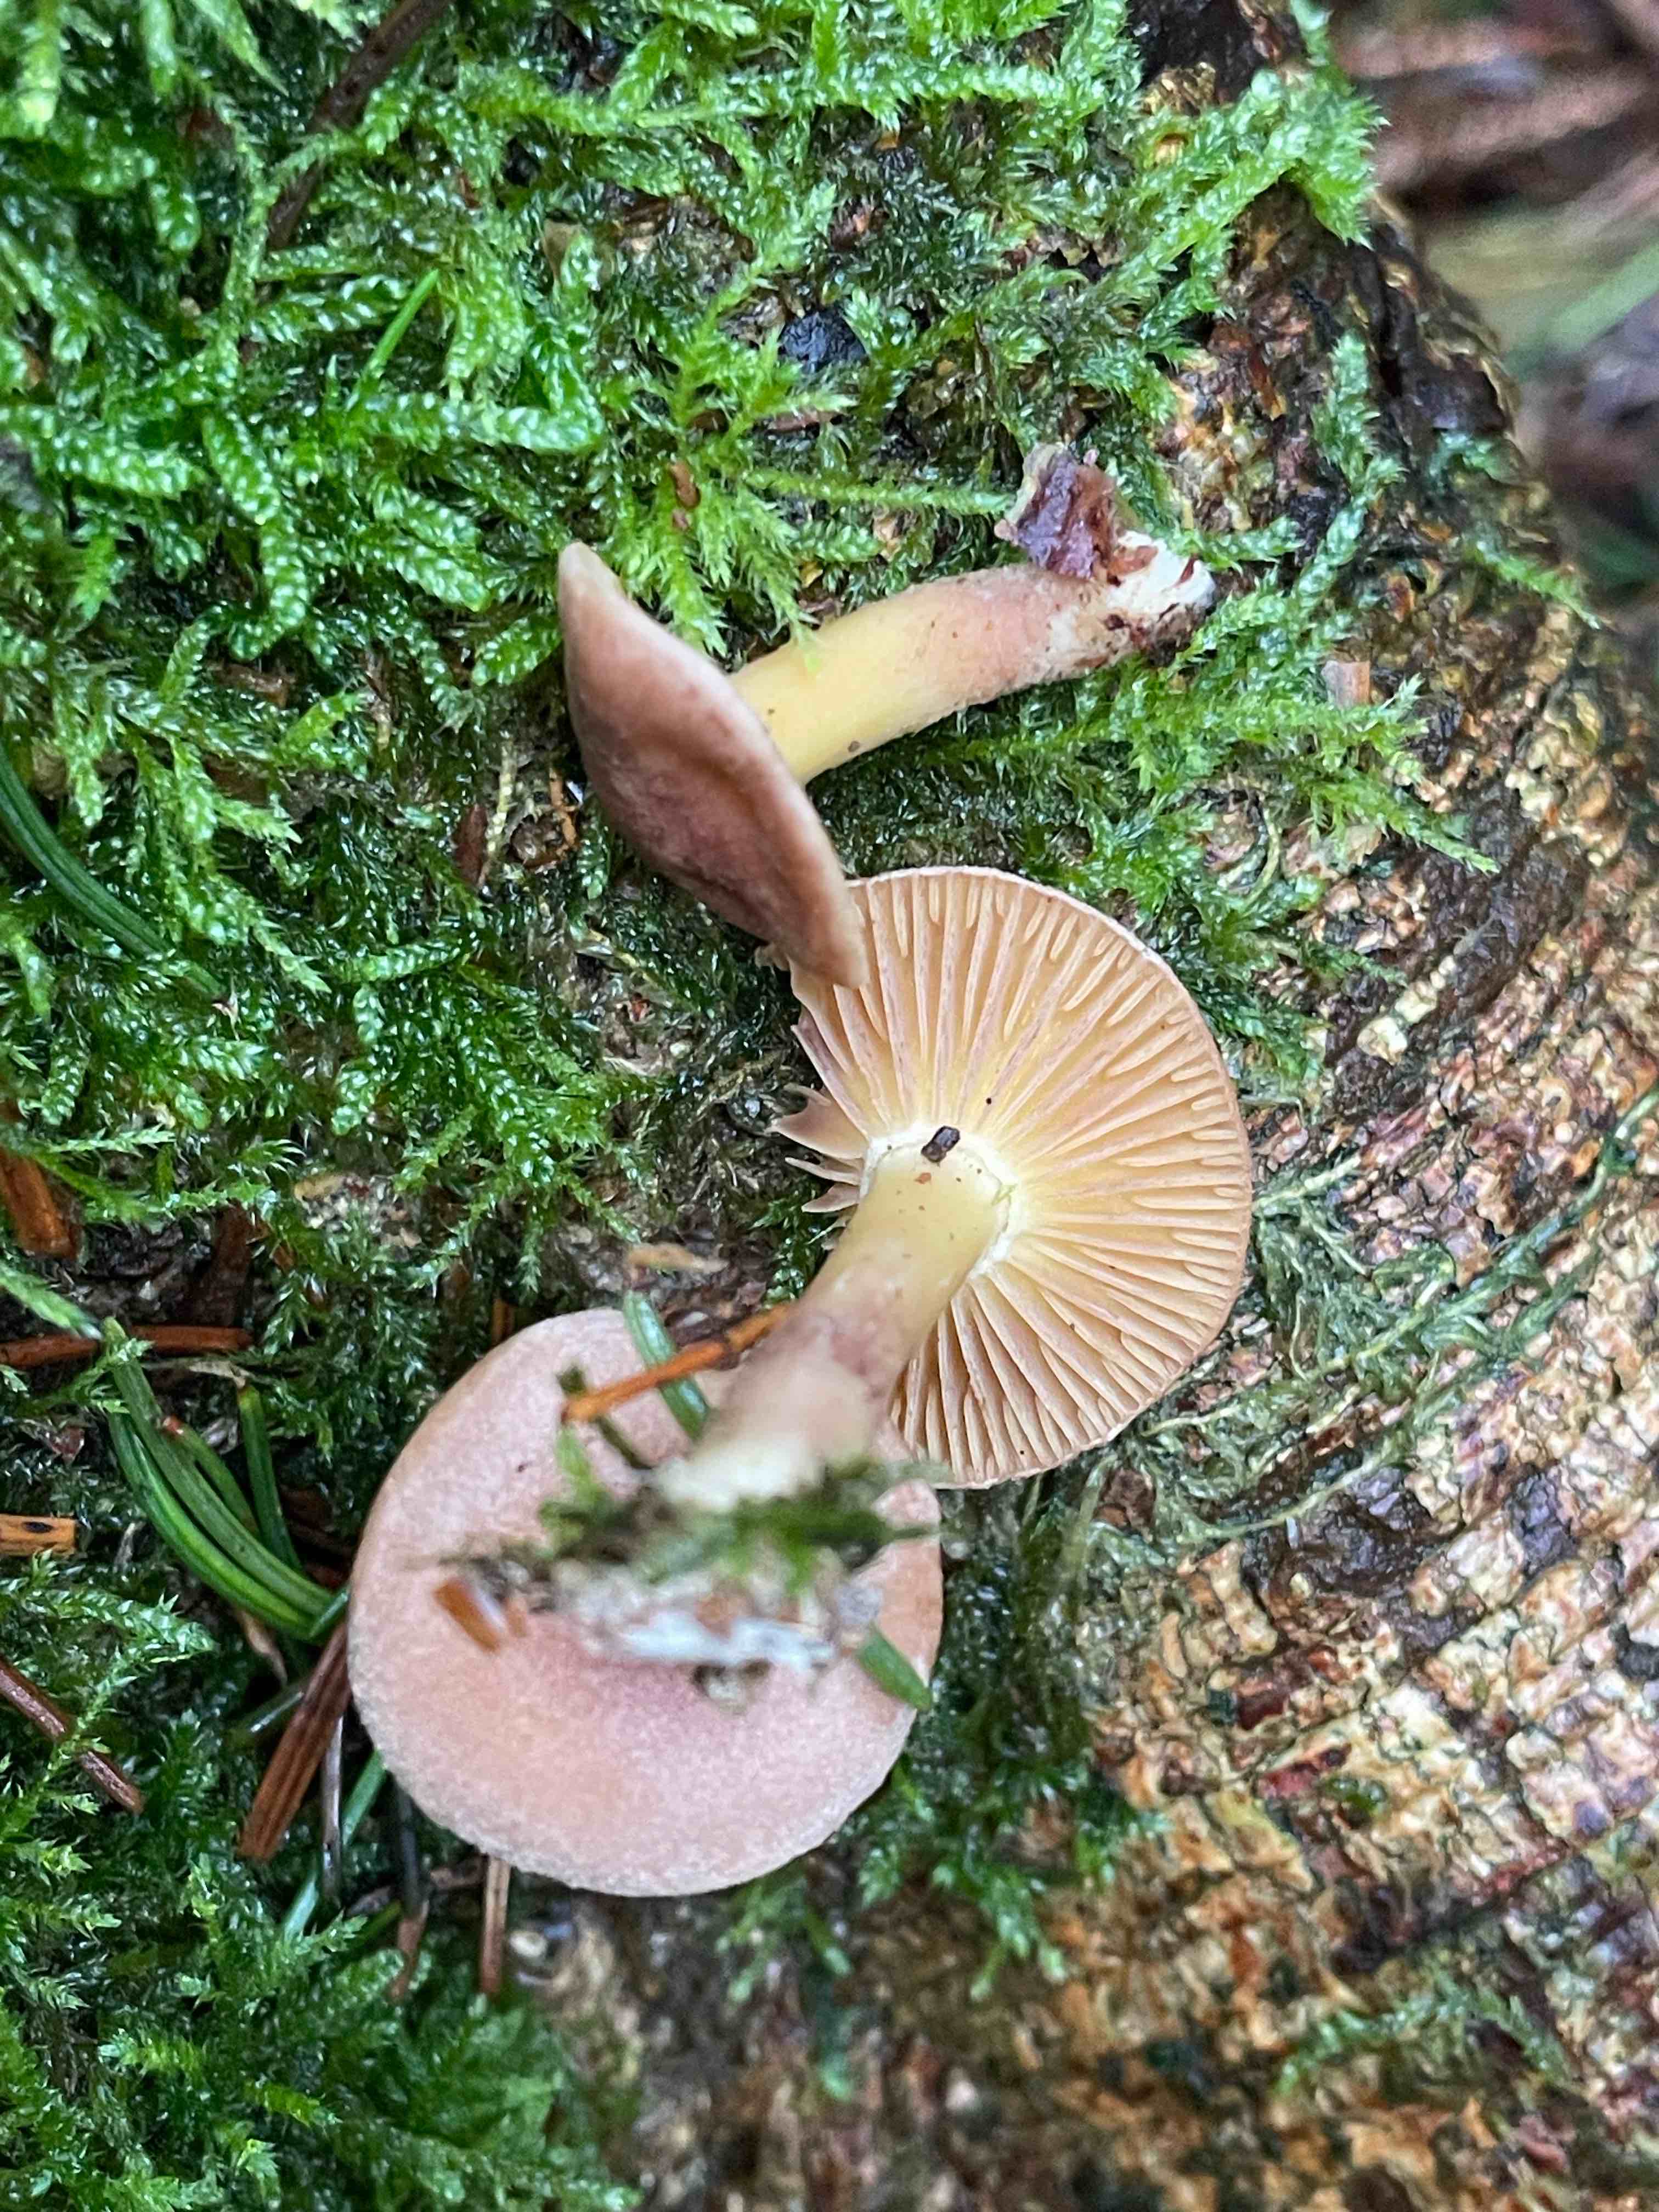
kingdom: Fungi
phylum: Basidiomycota
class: Agaricomycetes
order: Agaricales
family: Tricholomataceae
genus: Tricholomopsis
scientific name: Tricholomopsis rutilans
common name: purpur-væbnerhat
